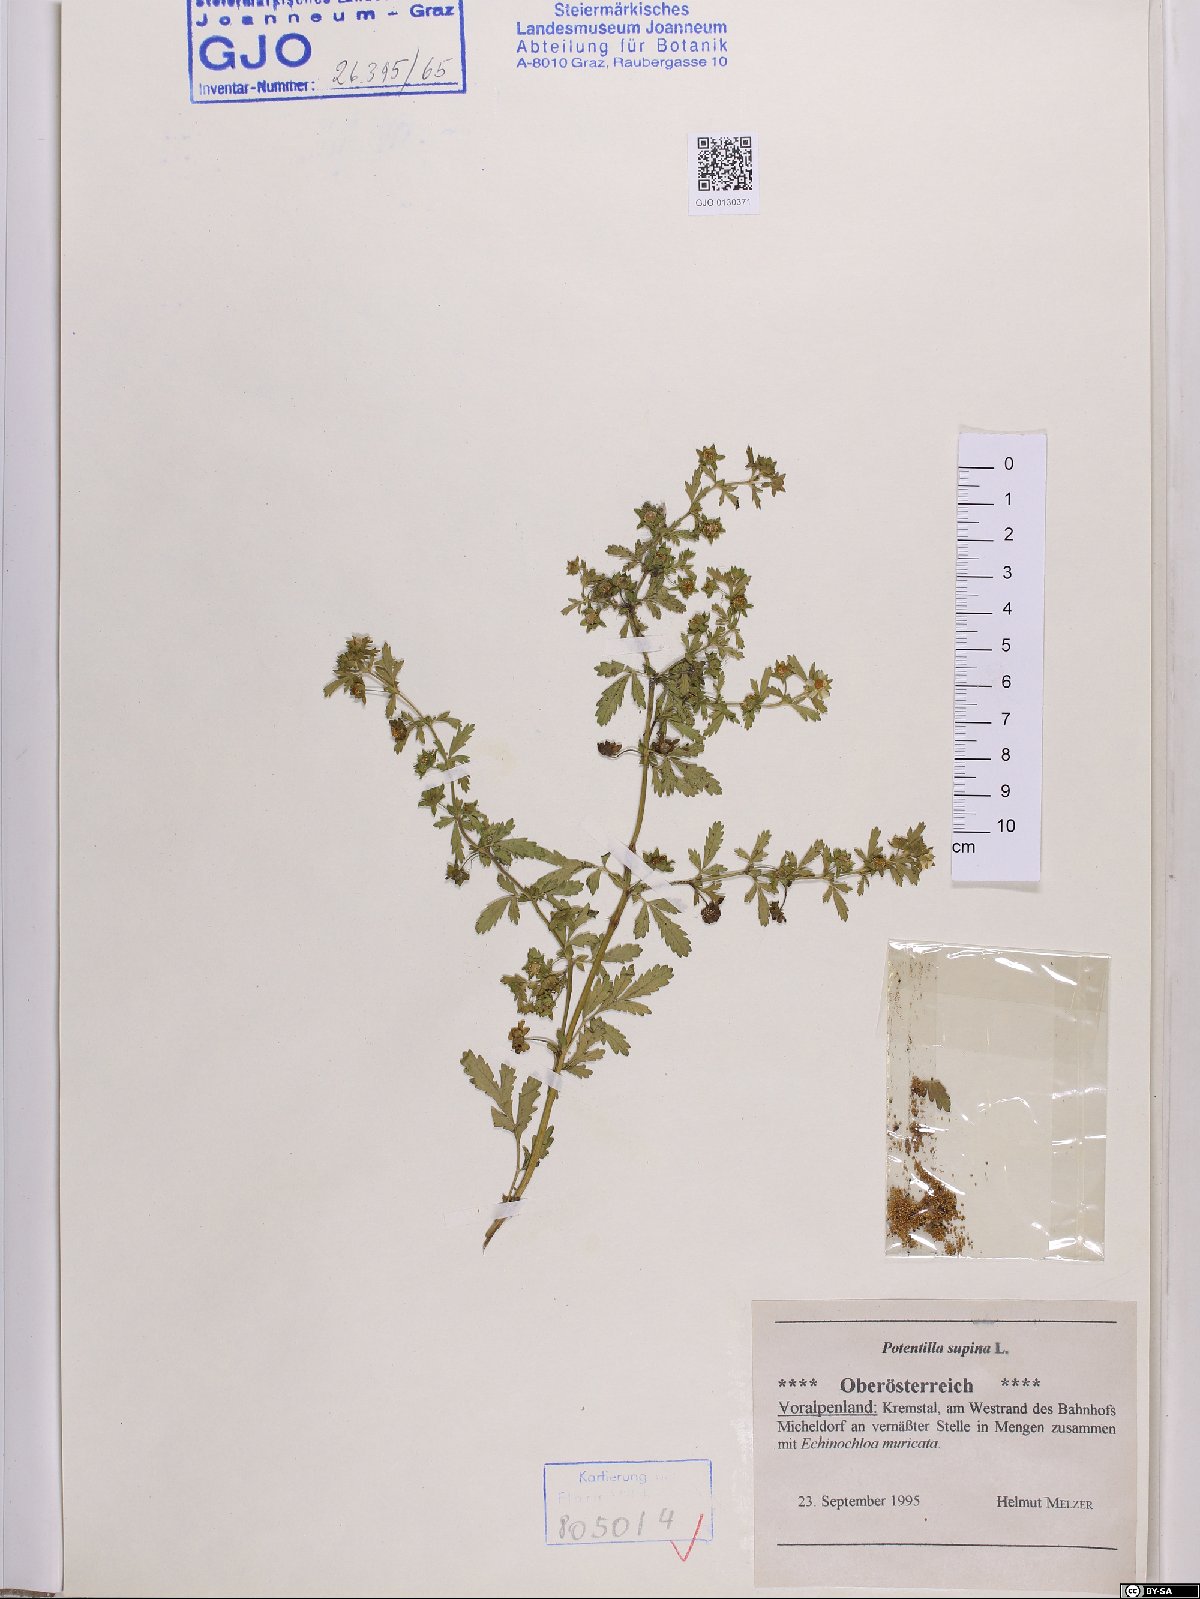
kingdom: Plantae
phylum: Tracheophyta
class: Magnoliopsida
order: Rosales
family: Rosaceae
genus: Potentilla
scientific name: Potentilla supina
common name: Prostrate cinquefoil
